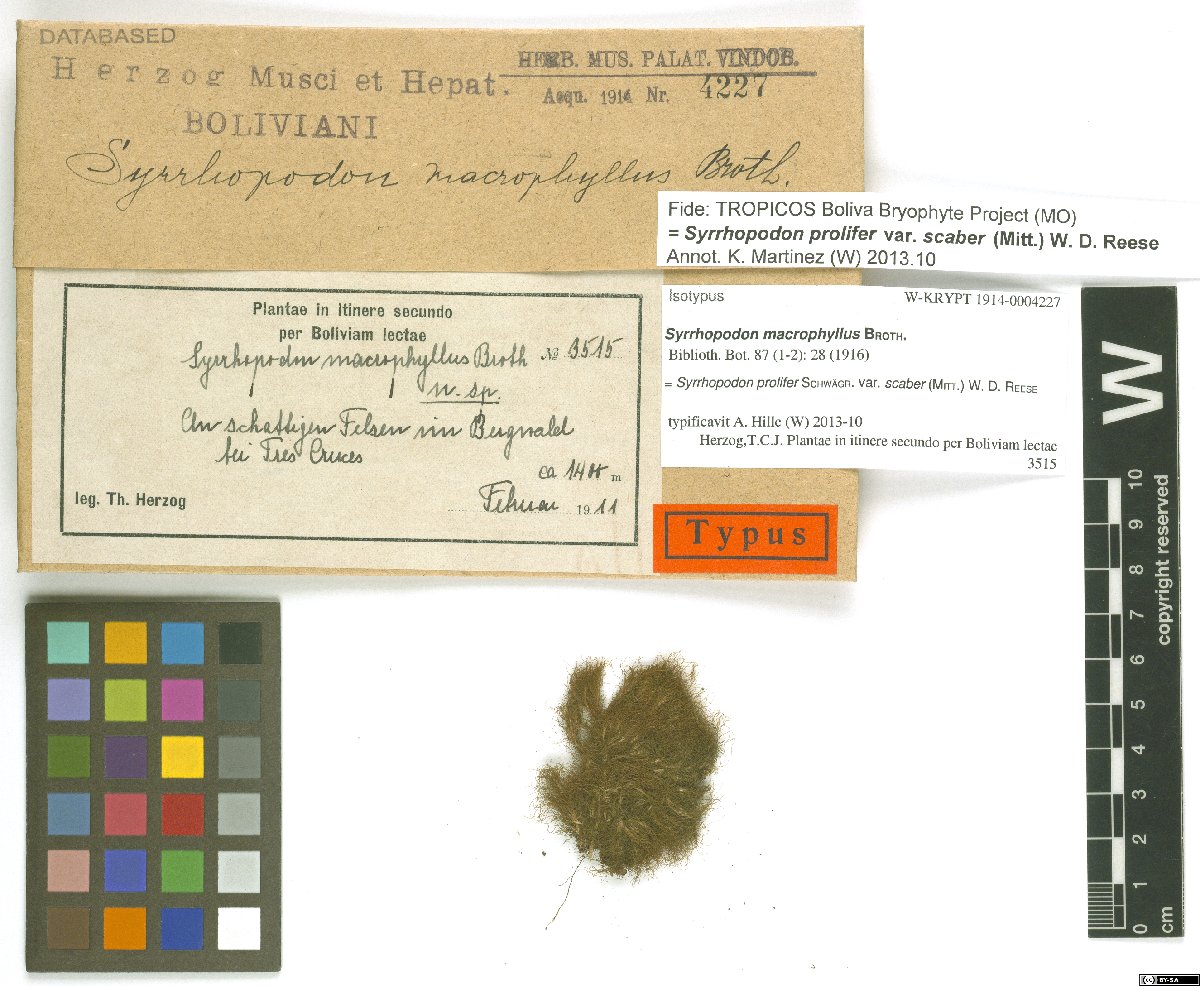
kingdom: Plantae
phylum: Bryophyta
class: Bryopsida
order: Dicranales
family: Calymperaceae
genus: Syrrhopodon
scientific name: Syrrhopodon prolifer
